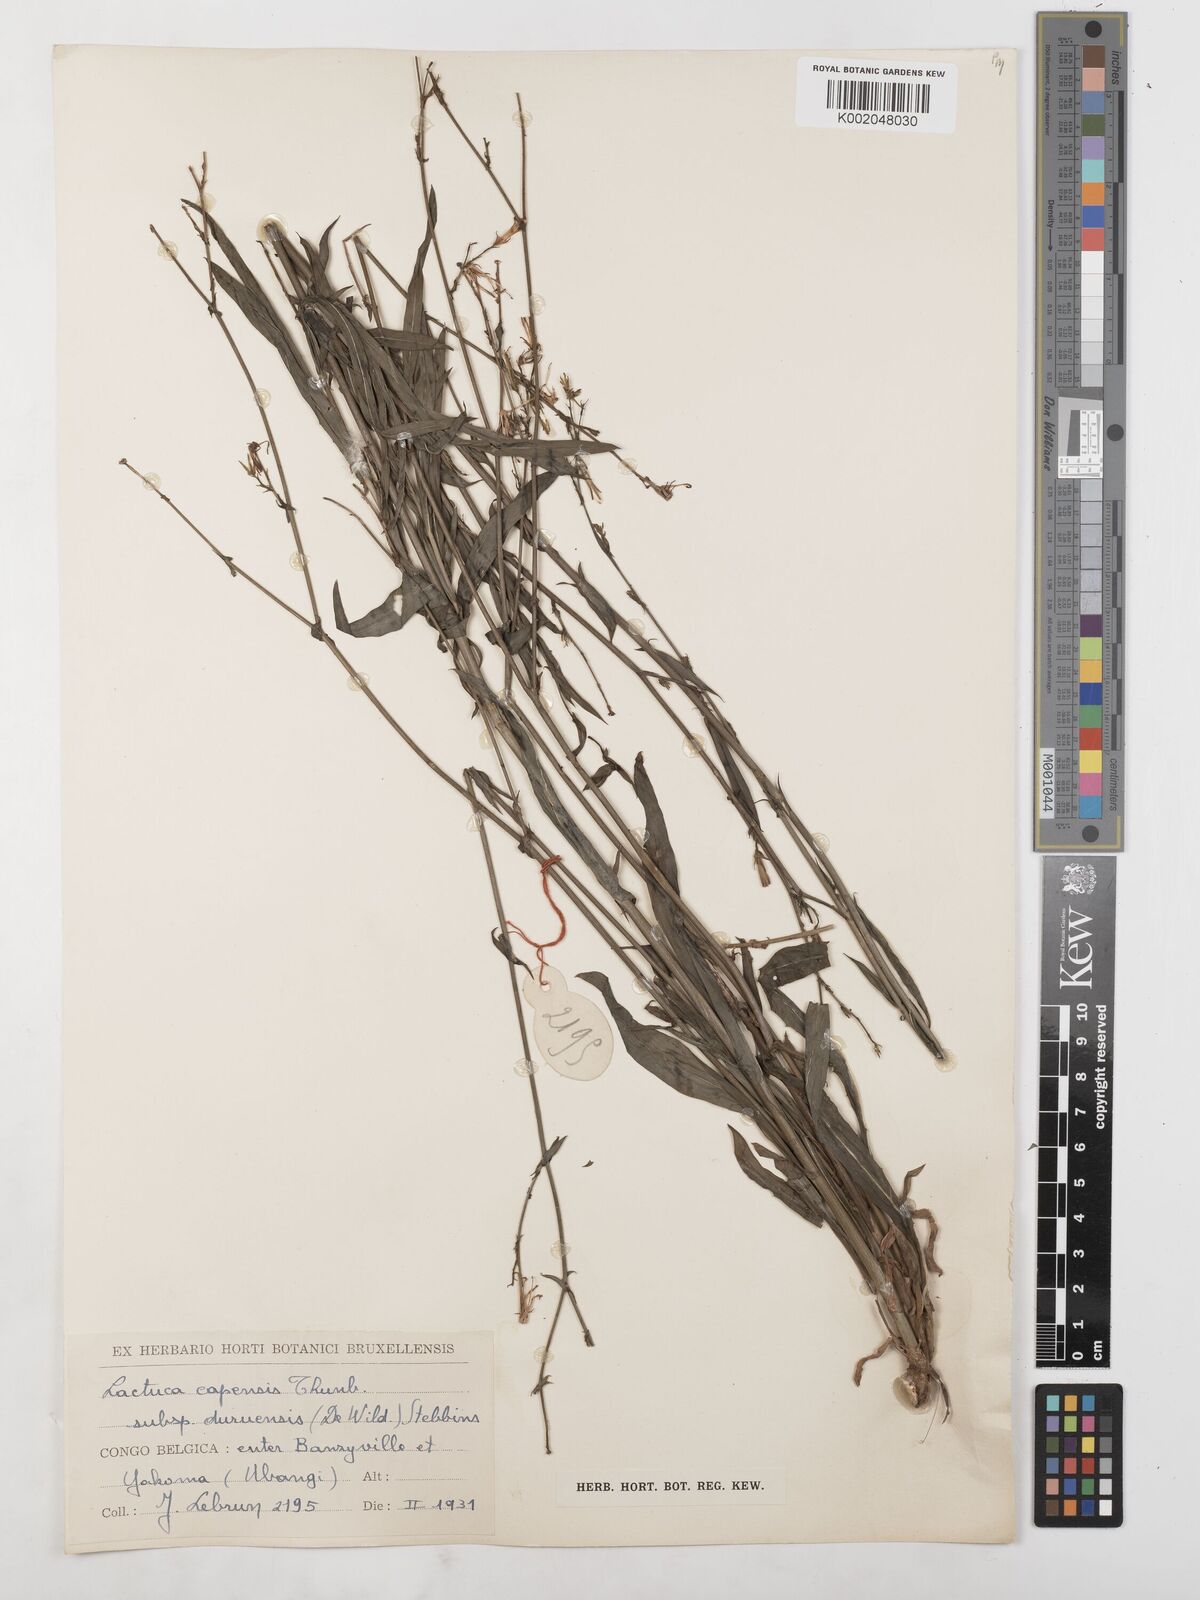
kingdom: Plantae
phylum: Tracheophyta
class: Magnoliopsida
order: Asterales
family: Asteraceae
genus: Lactuca
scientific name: Lactuca inermis
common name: Wild lettuce
